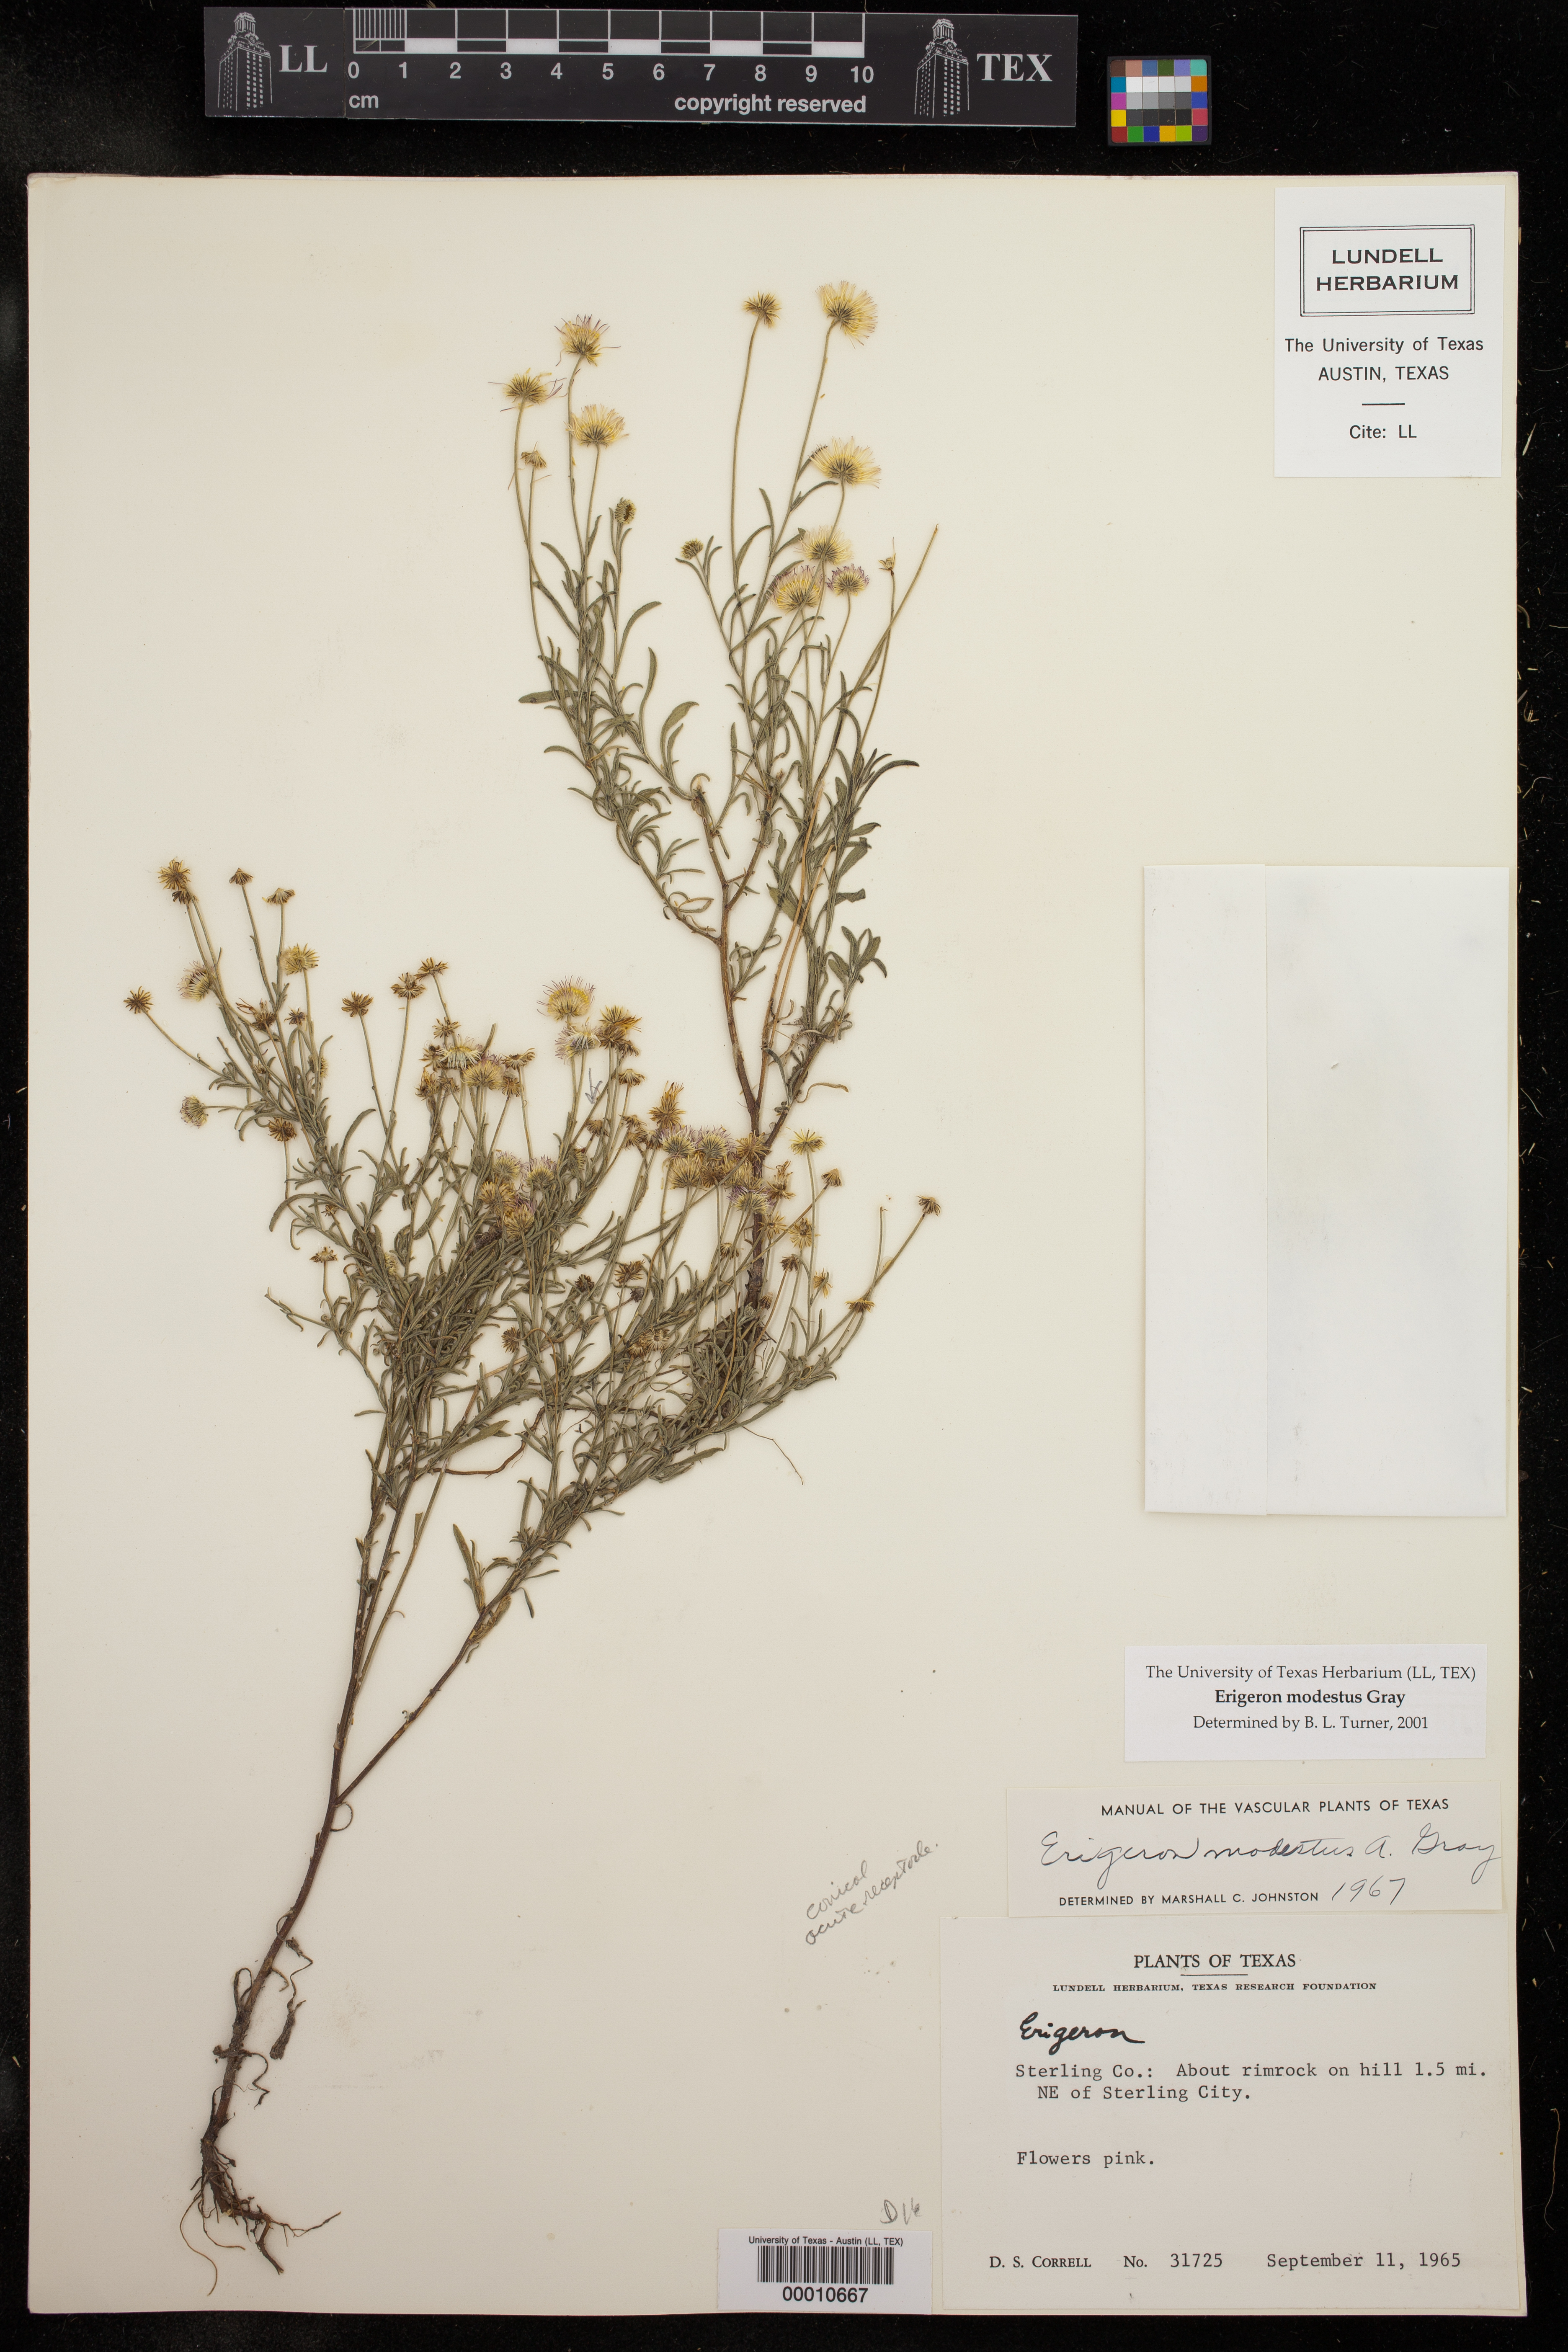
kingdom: Plantae
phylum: Tracheophyta
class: Magnoliopsida
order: Asterales
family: Asteraceae
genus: Erigeron
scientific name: Erigeron modestus
